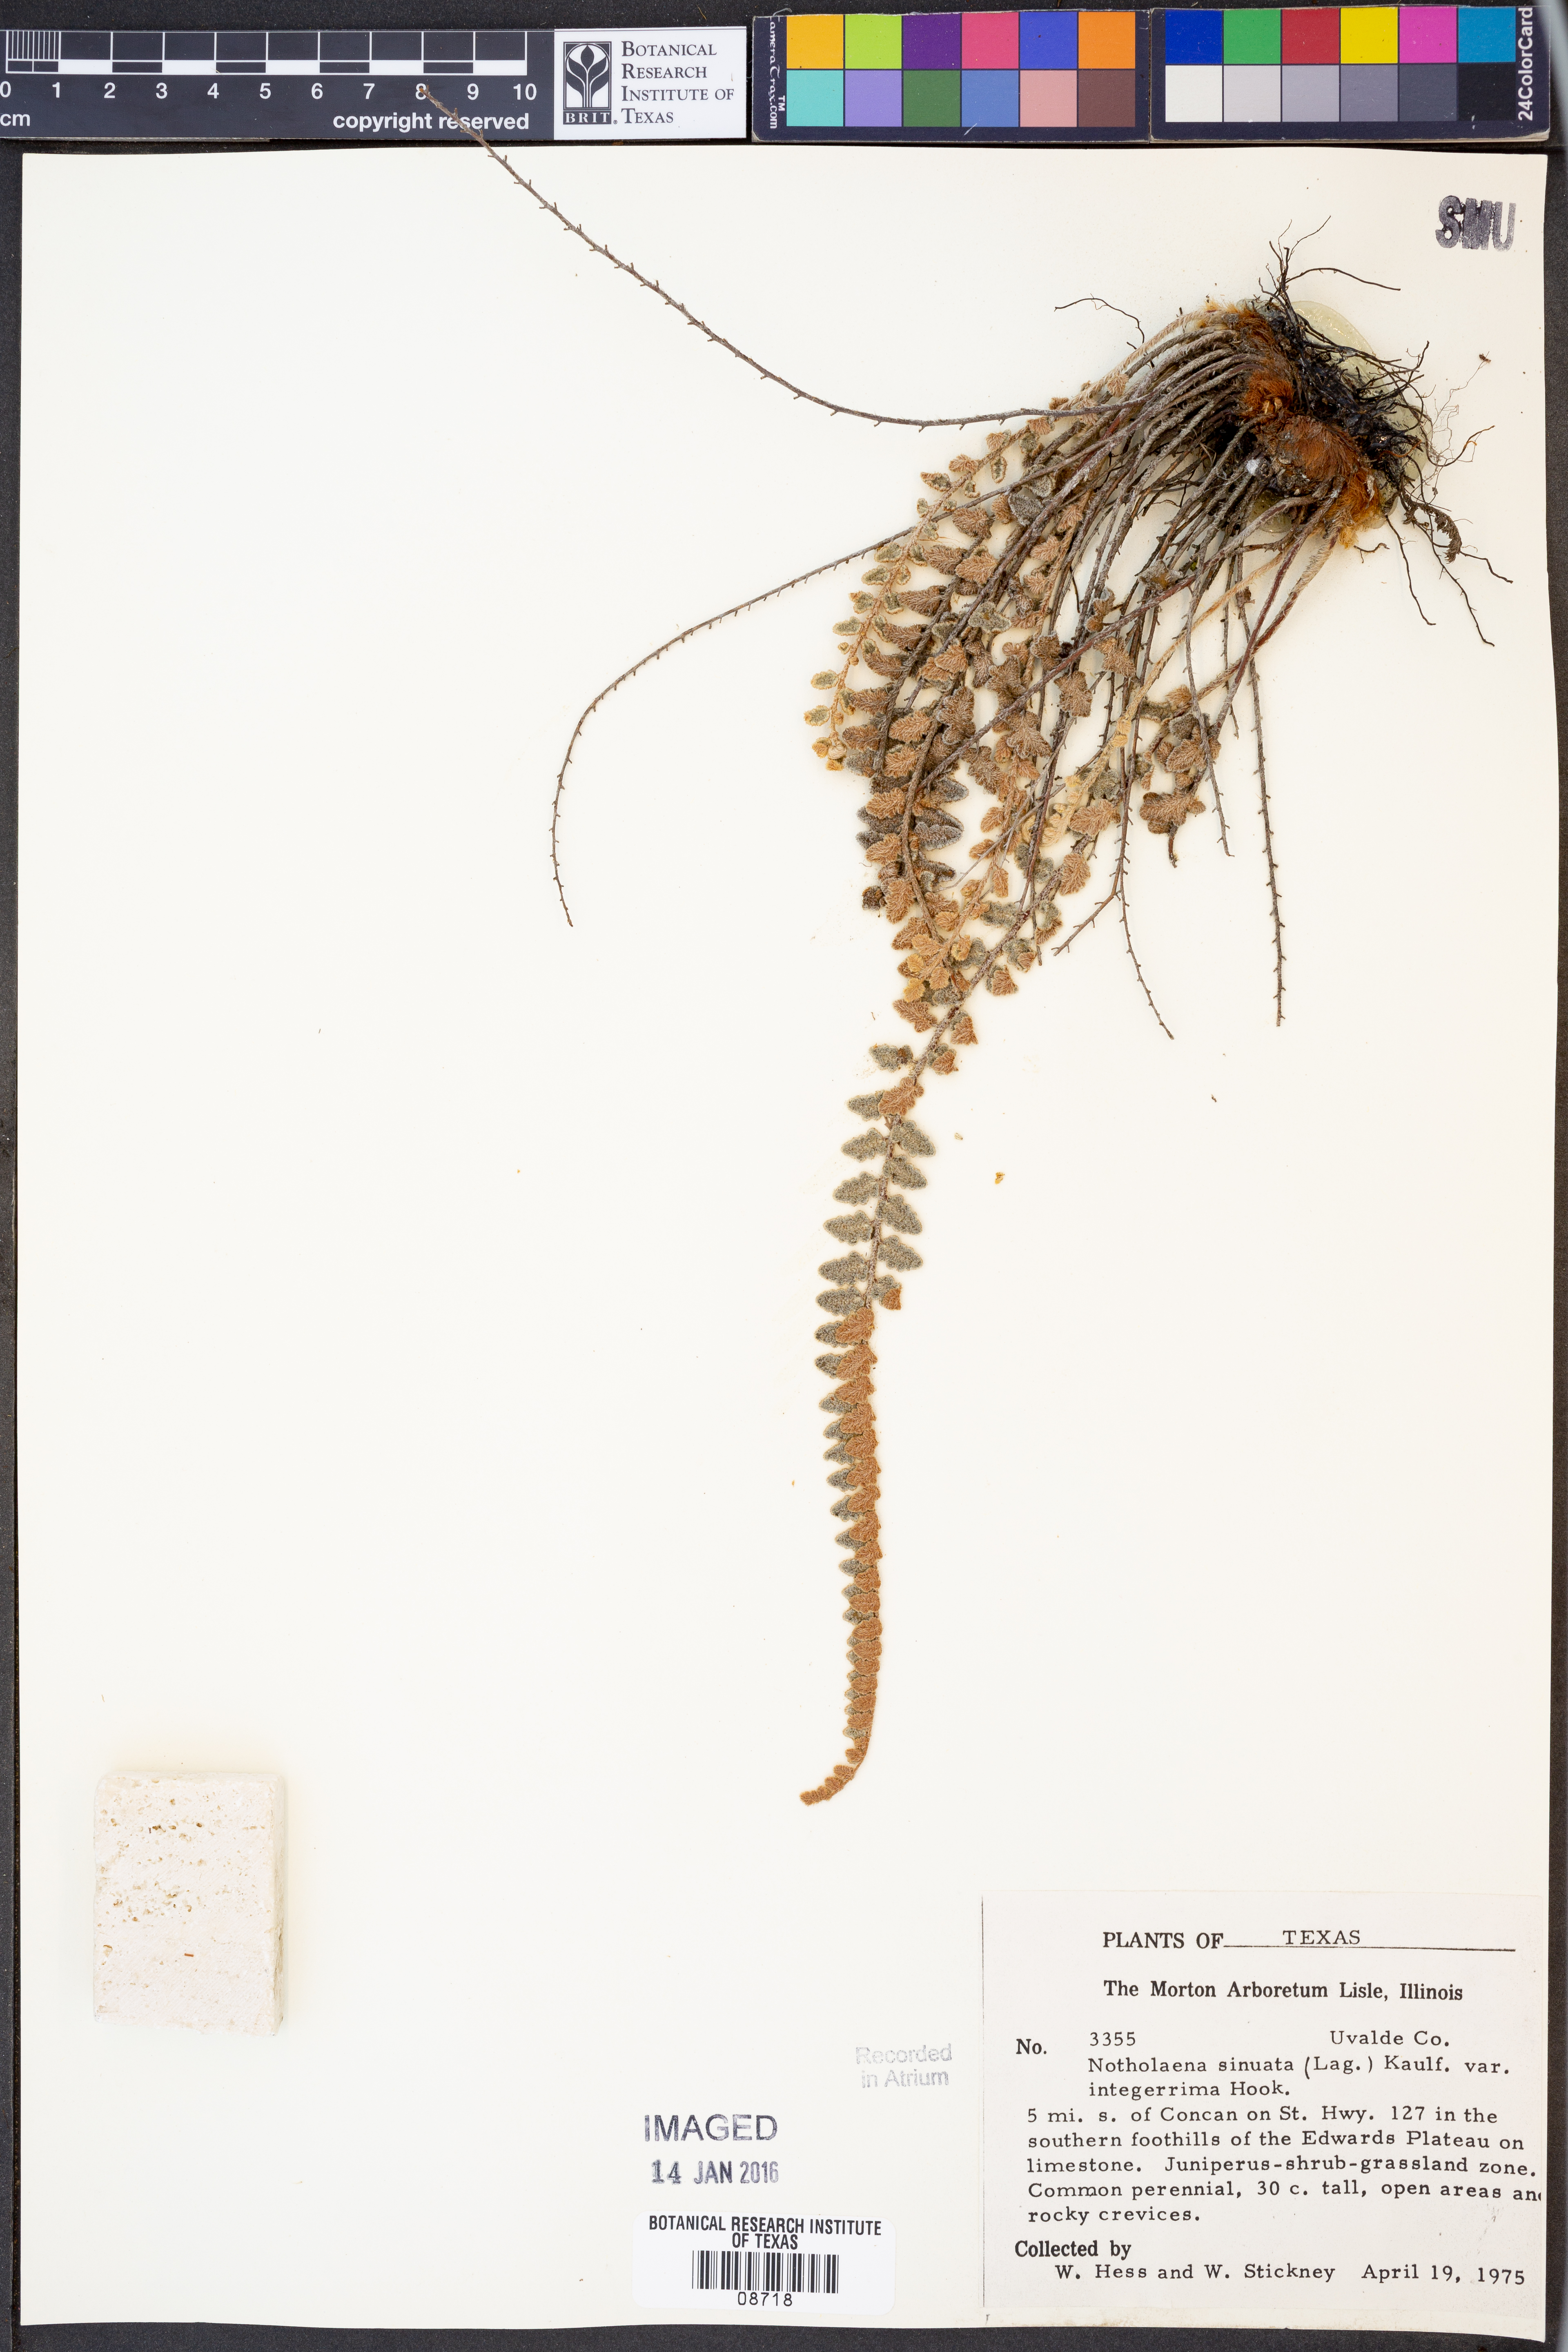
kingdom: Plantae
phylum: Tracheophyta
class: Polypodiopsida
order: Polypodiales
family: Pteridaceae
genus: Astrolepis
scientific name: Astrolepis integerrima
